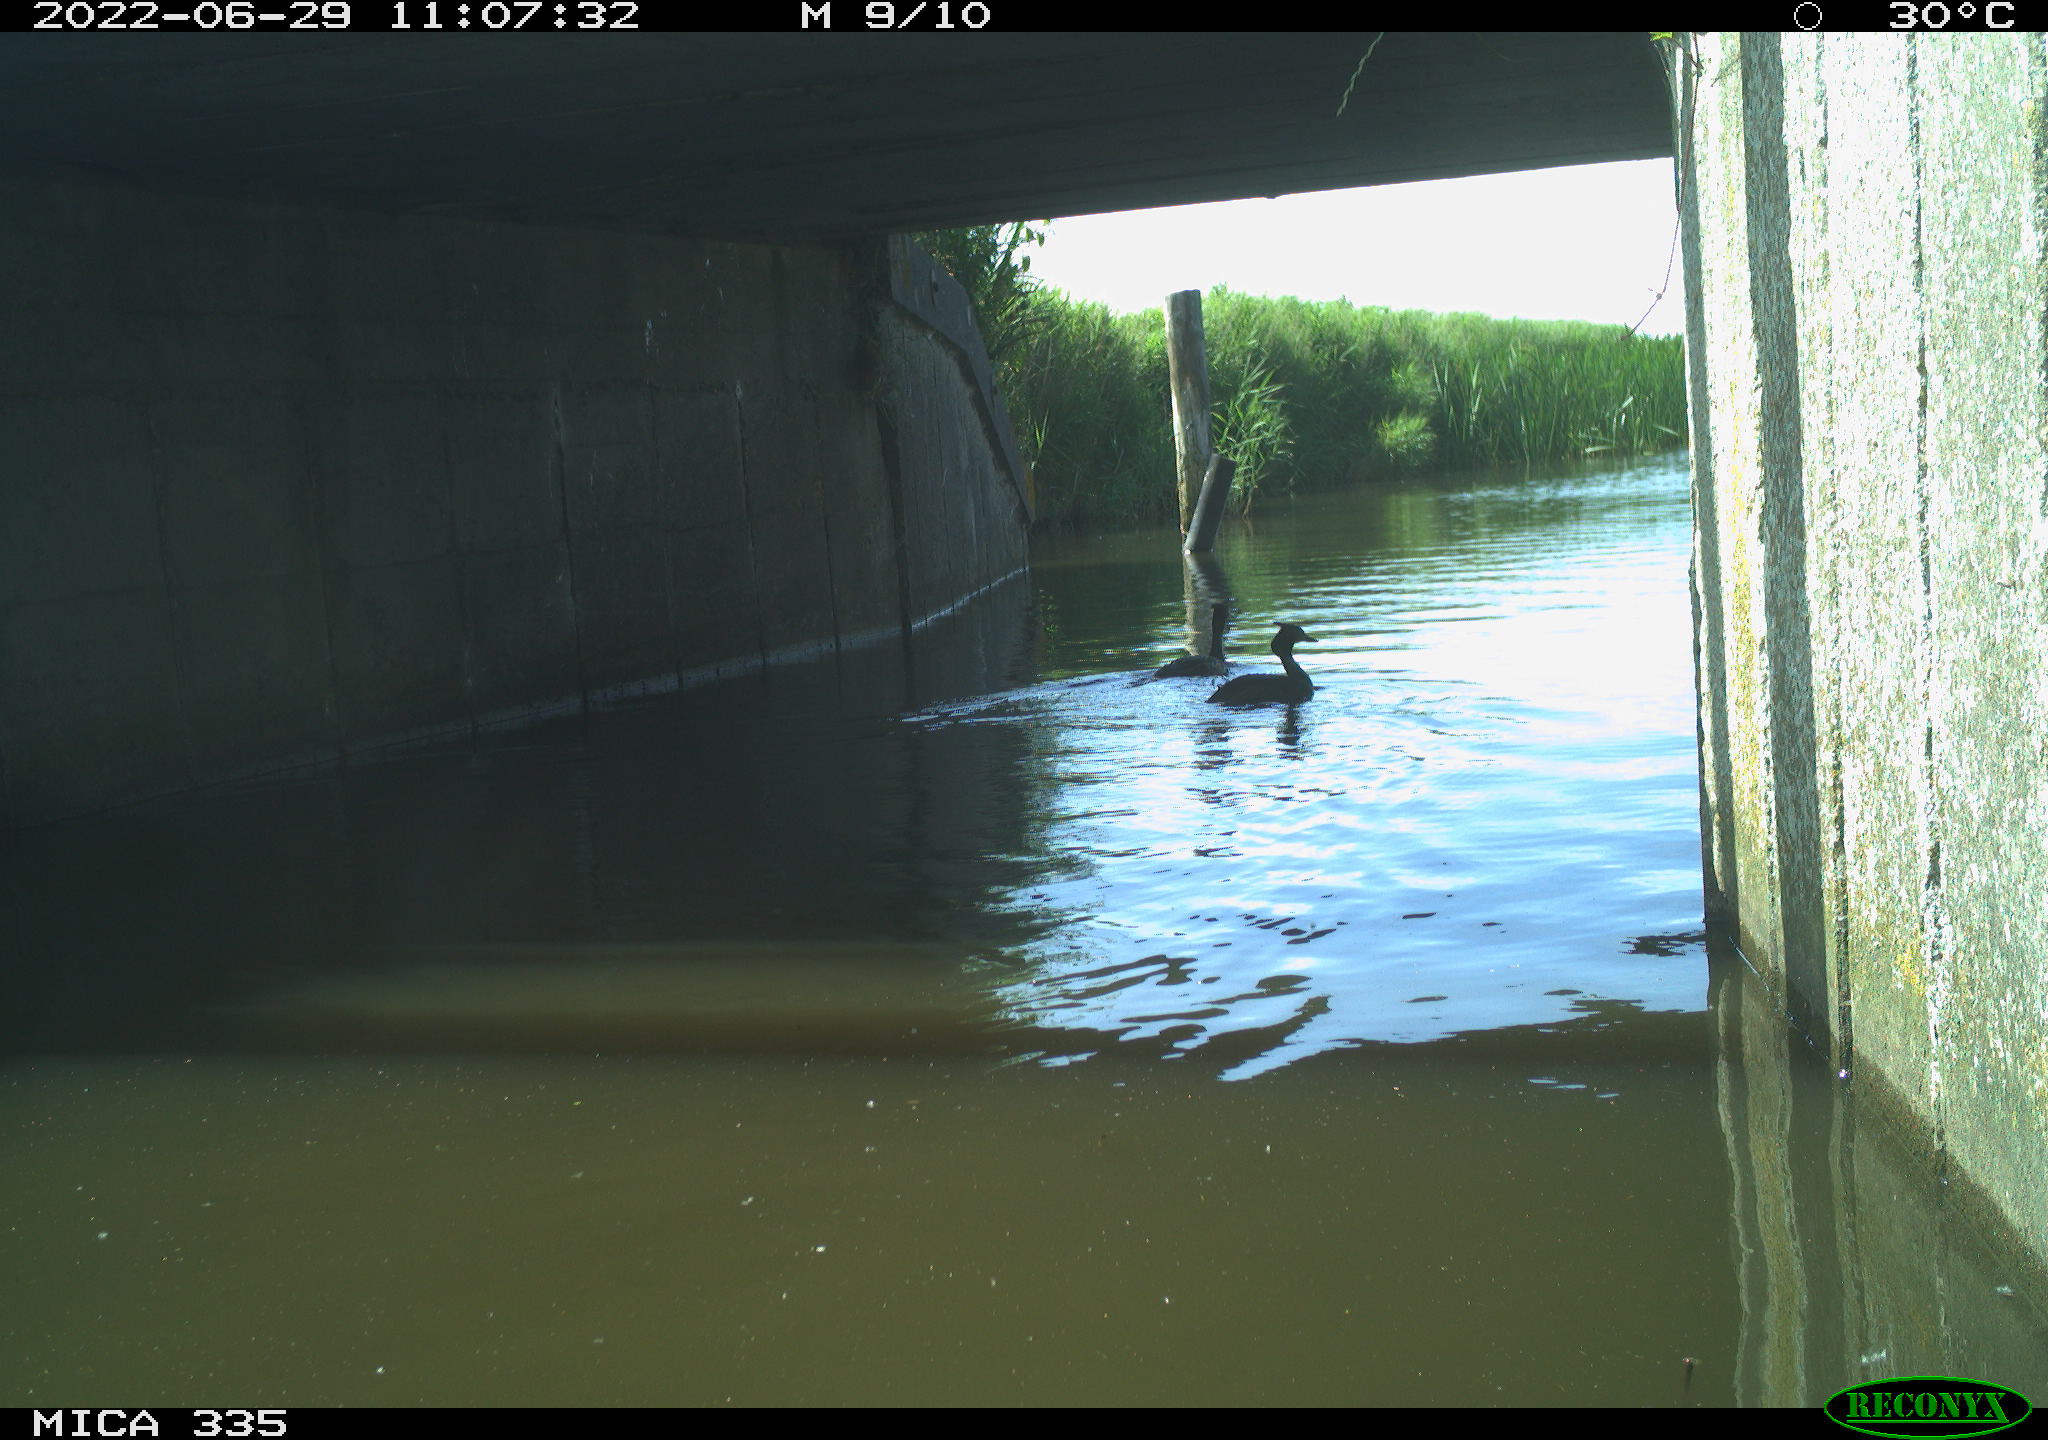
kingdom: Animalia
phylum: Chordata
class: Aves
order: Podicipediformes
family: Podicipedidae
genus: Podiceps
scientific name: Podiceps cristatus
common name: Great crested grebe
